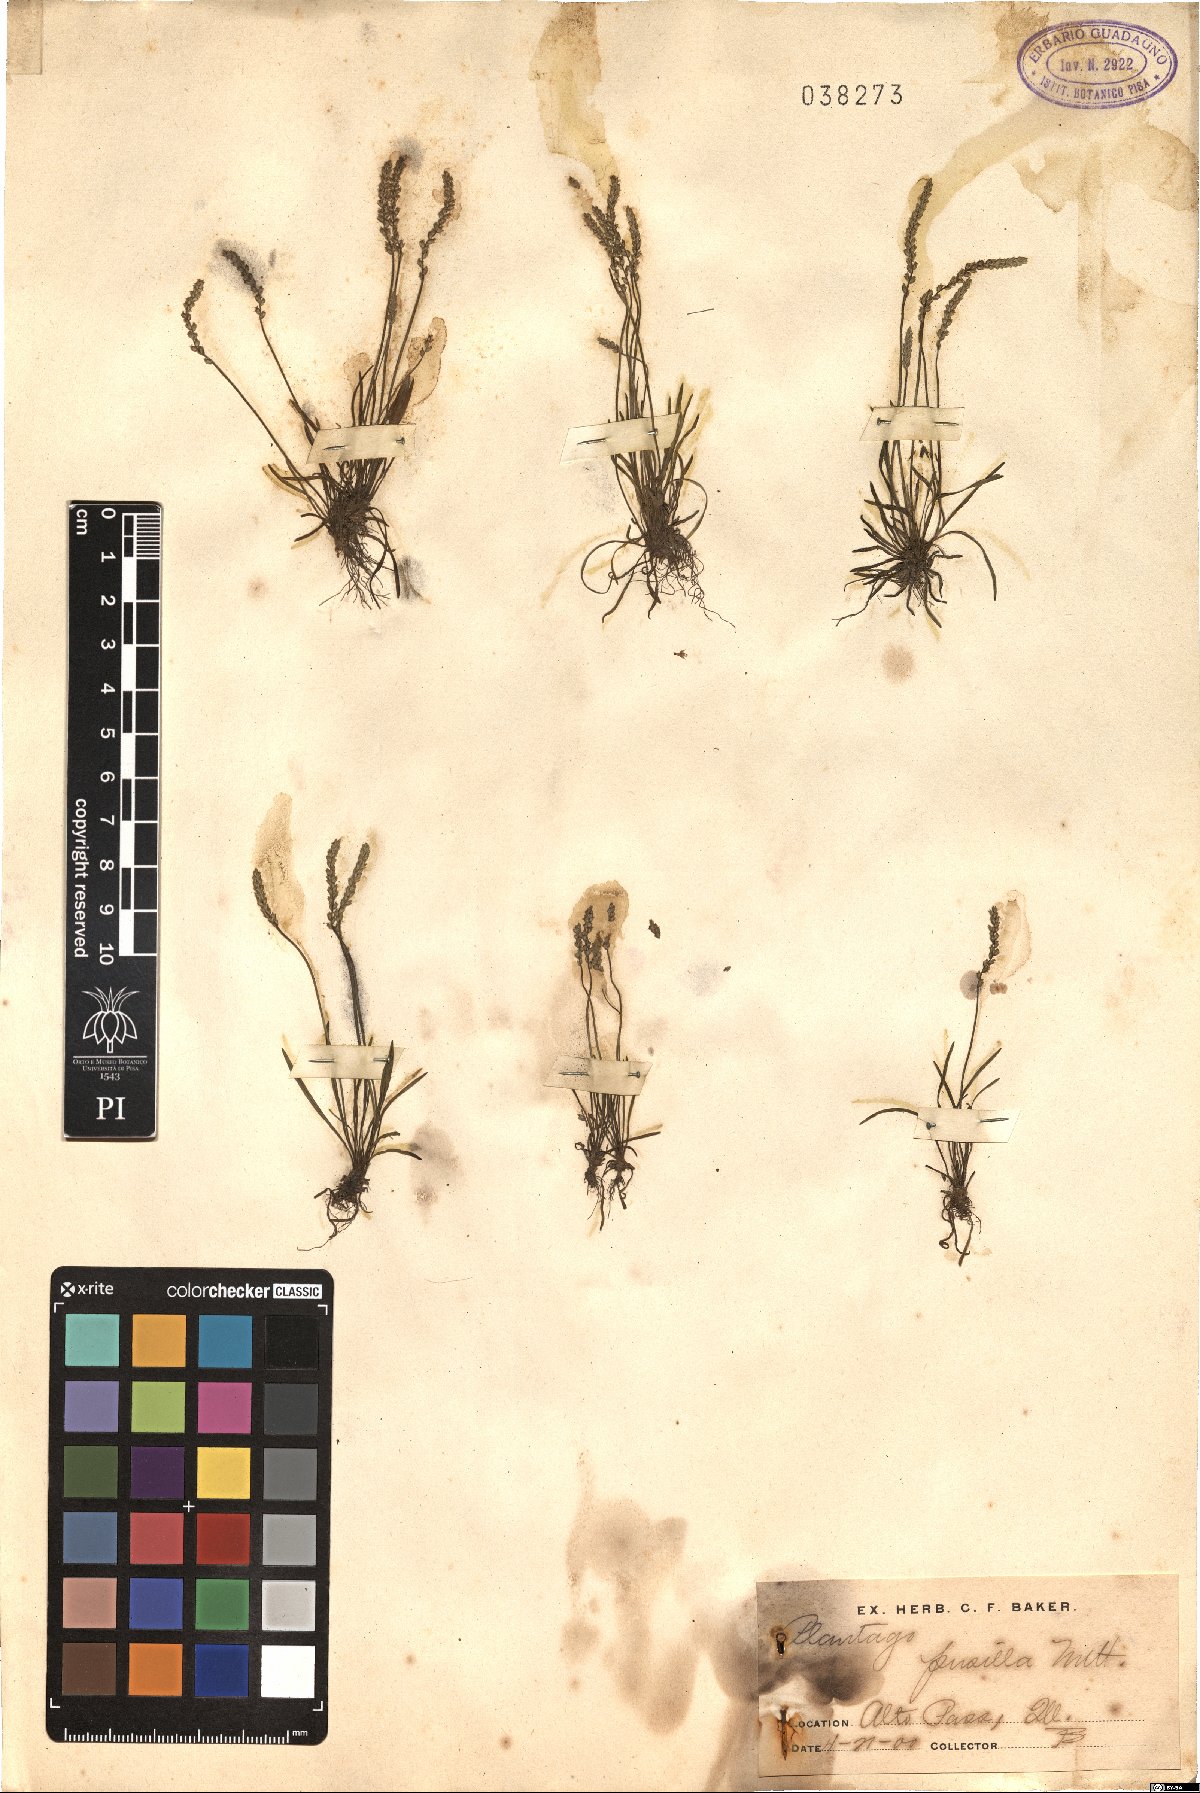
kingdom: Plantae
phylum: Tracheophyta
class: Magnoliopsida
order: Lamiales
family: Plantaginaceae
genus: Plantago
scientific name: Plantago pusilla
